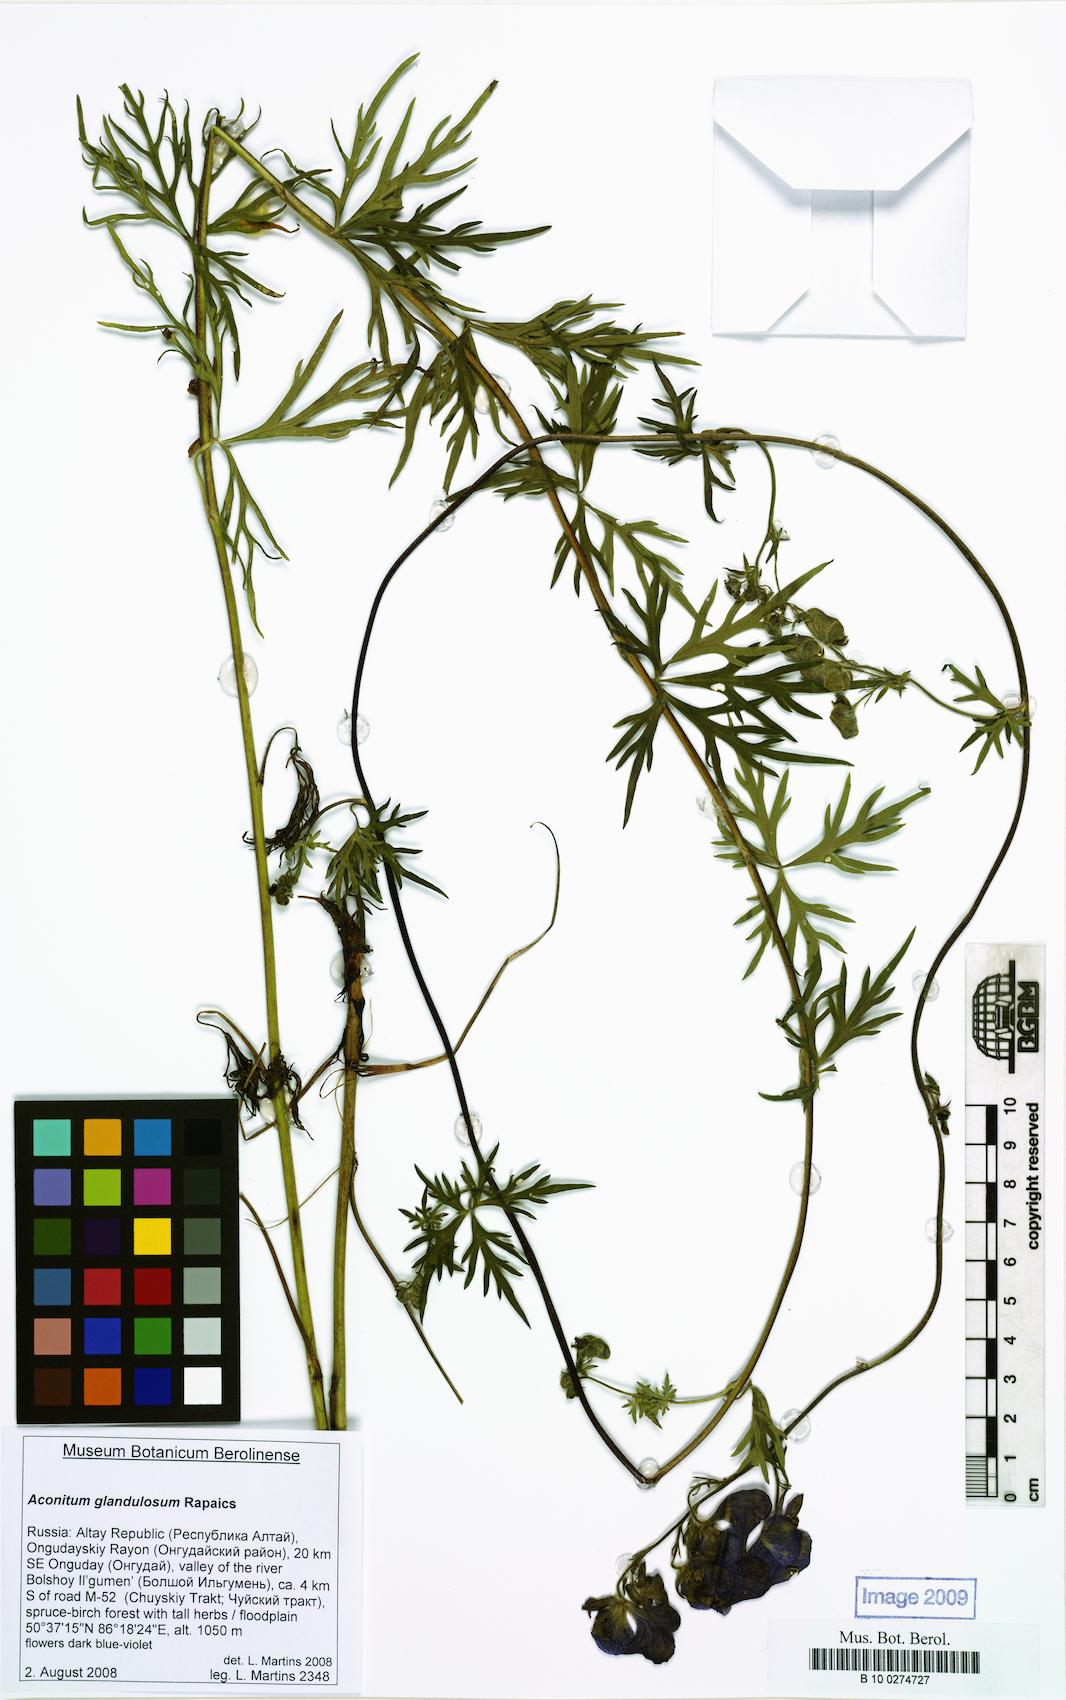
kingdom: Plantae
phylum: Tracheophyta
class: Magnoliopsida
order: Ranunculales
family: Ranunculaceae
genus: Aconitum
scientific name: Aconitum volubile
